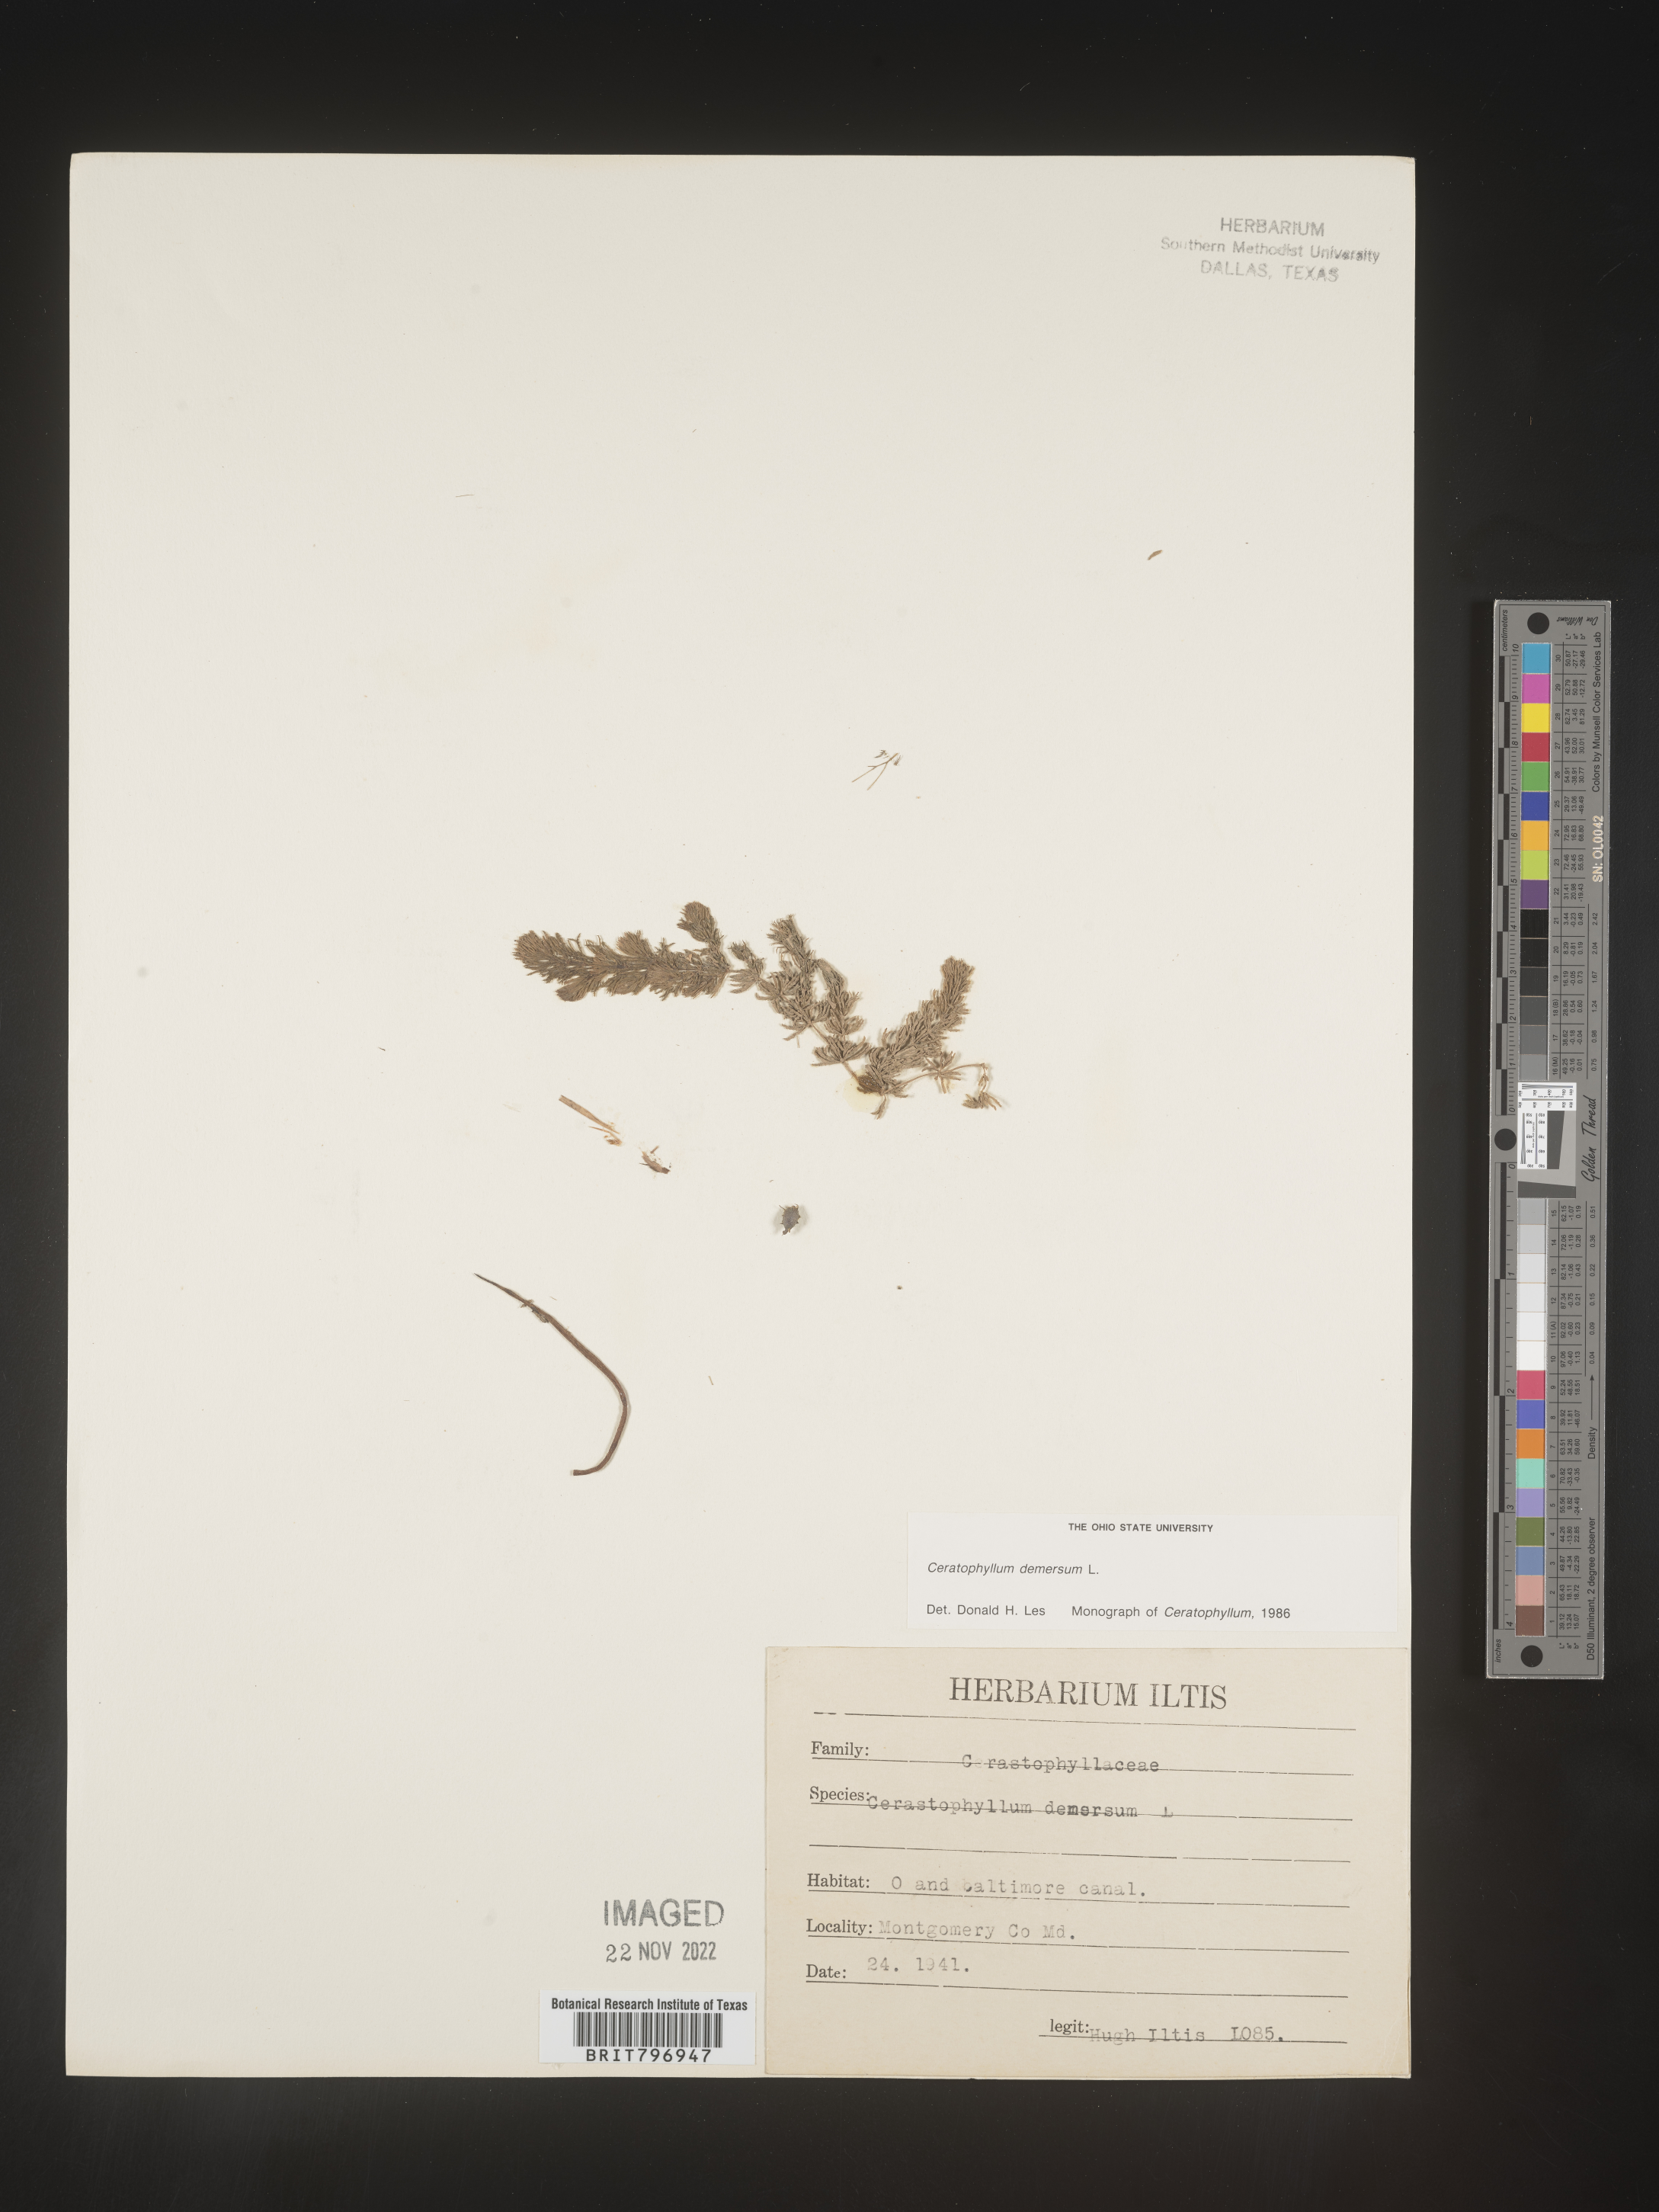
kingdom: Plantae
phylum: Tracheophyta
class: Magnoliopsida
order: Ceratophyllales
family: Ceratophyllaceae
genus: Ceratophyllum
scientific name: Ceratophyllum demersum
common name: Rigid hornwort
